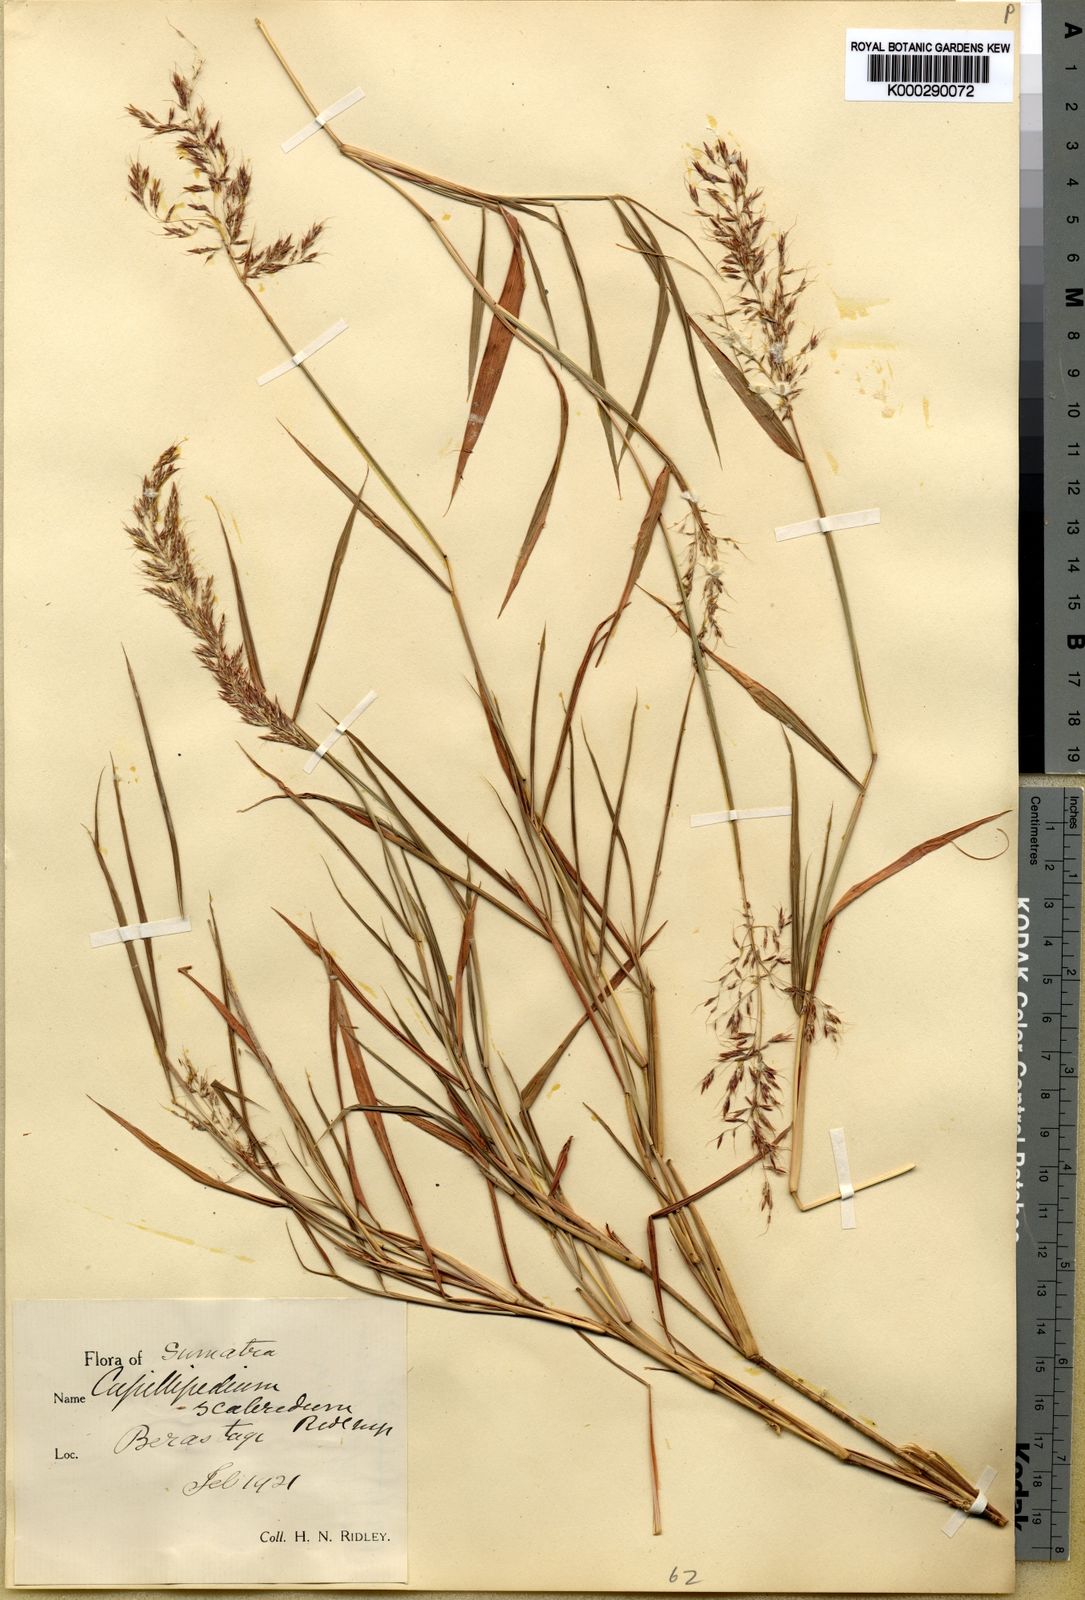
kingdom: Plantae
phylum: Tracheophyta
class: Liliopsida
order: Poales
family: Poaceae
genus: Capillipedium
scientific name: Capillipedium assimile
